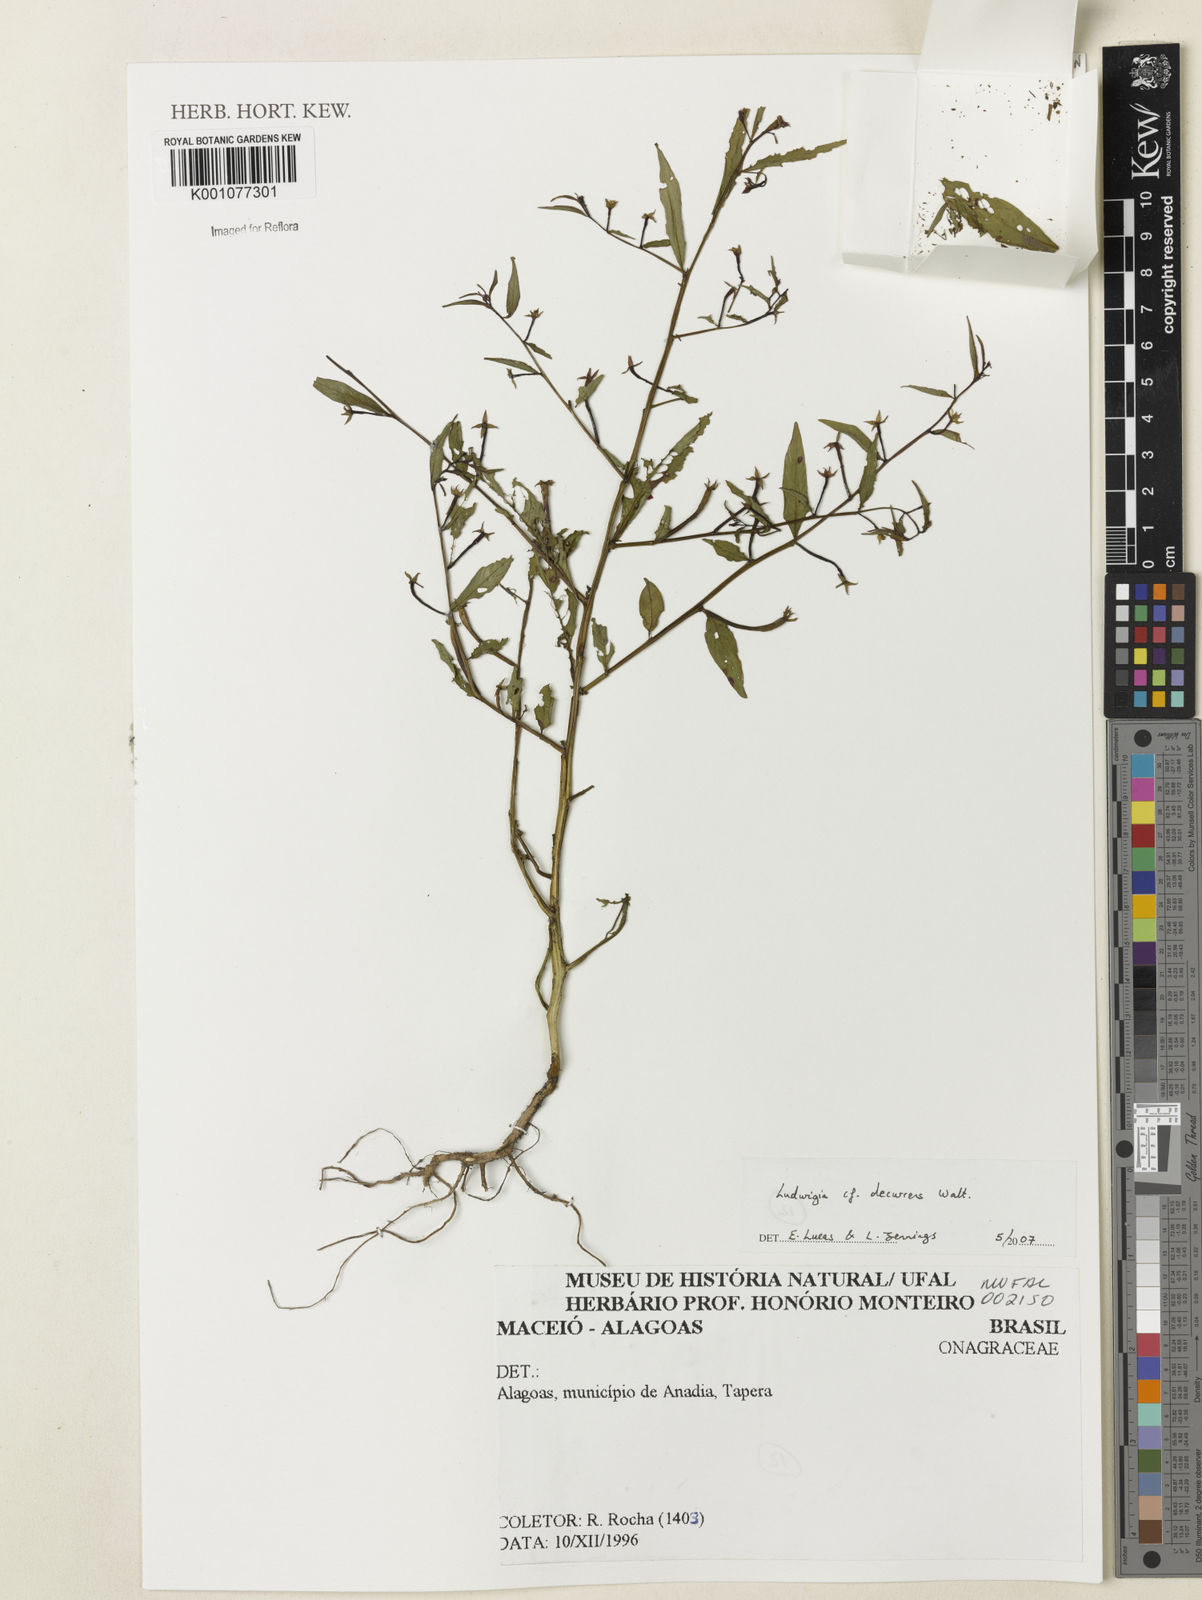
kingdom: Plantae
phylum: Tracheophyta
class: Magnoliopsida
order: Myrtales
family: Onagraceae
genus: Ludwigia
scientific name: Ludwigia decurrens
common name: Winged water-primrose
